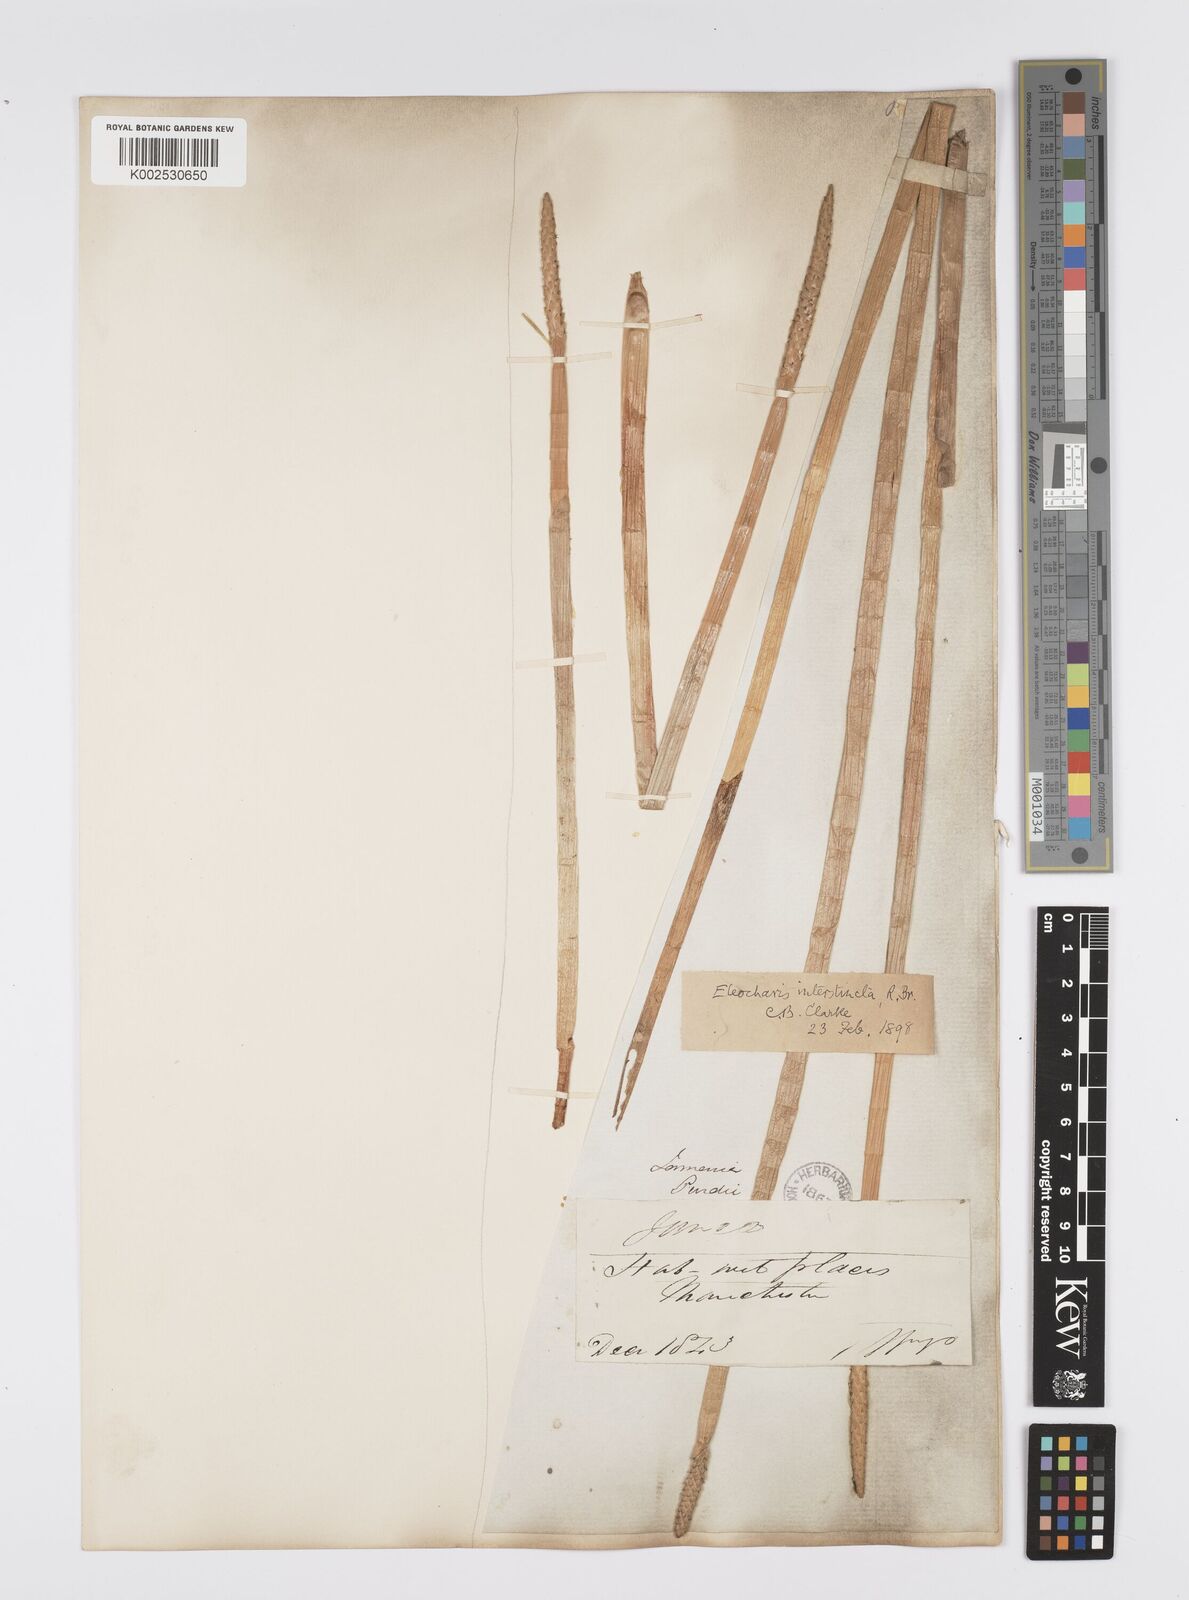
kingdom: Plantae
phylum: Tracheophyta
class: Liliopsida
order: Poales
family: Cyperaceae
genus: Eleocharis
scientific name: Eleocharis interstincta
